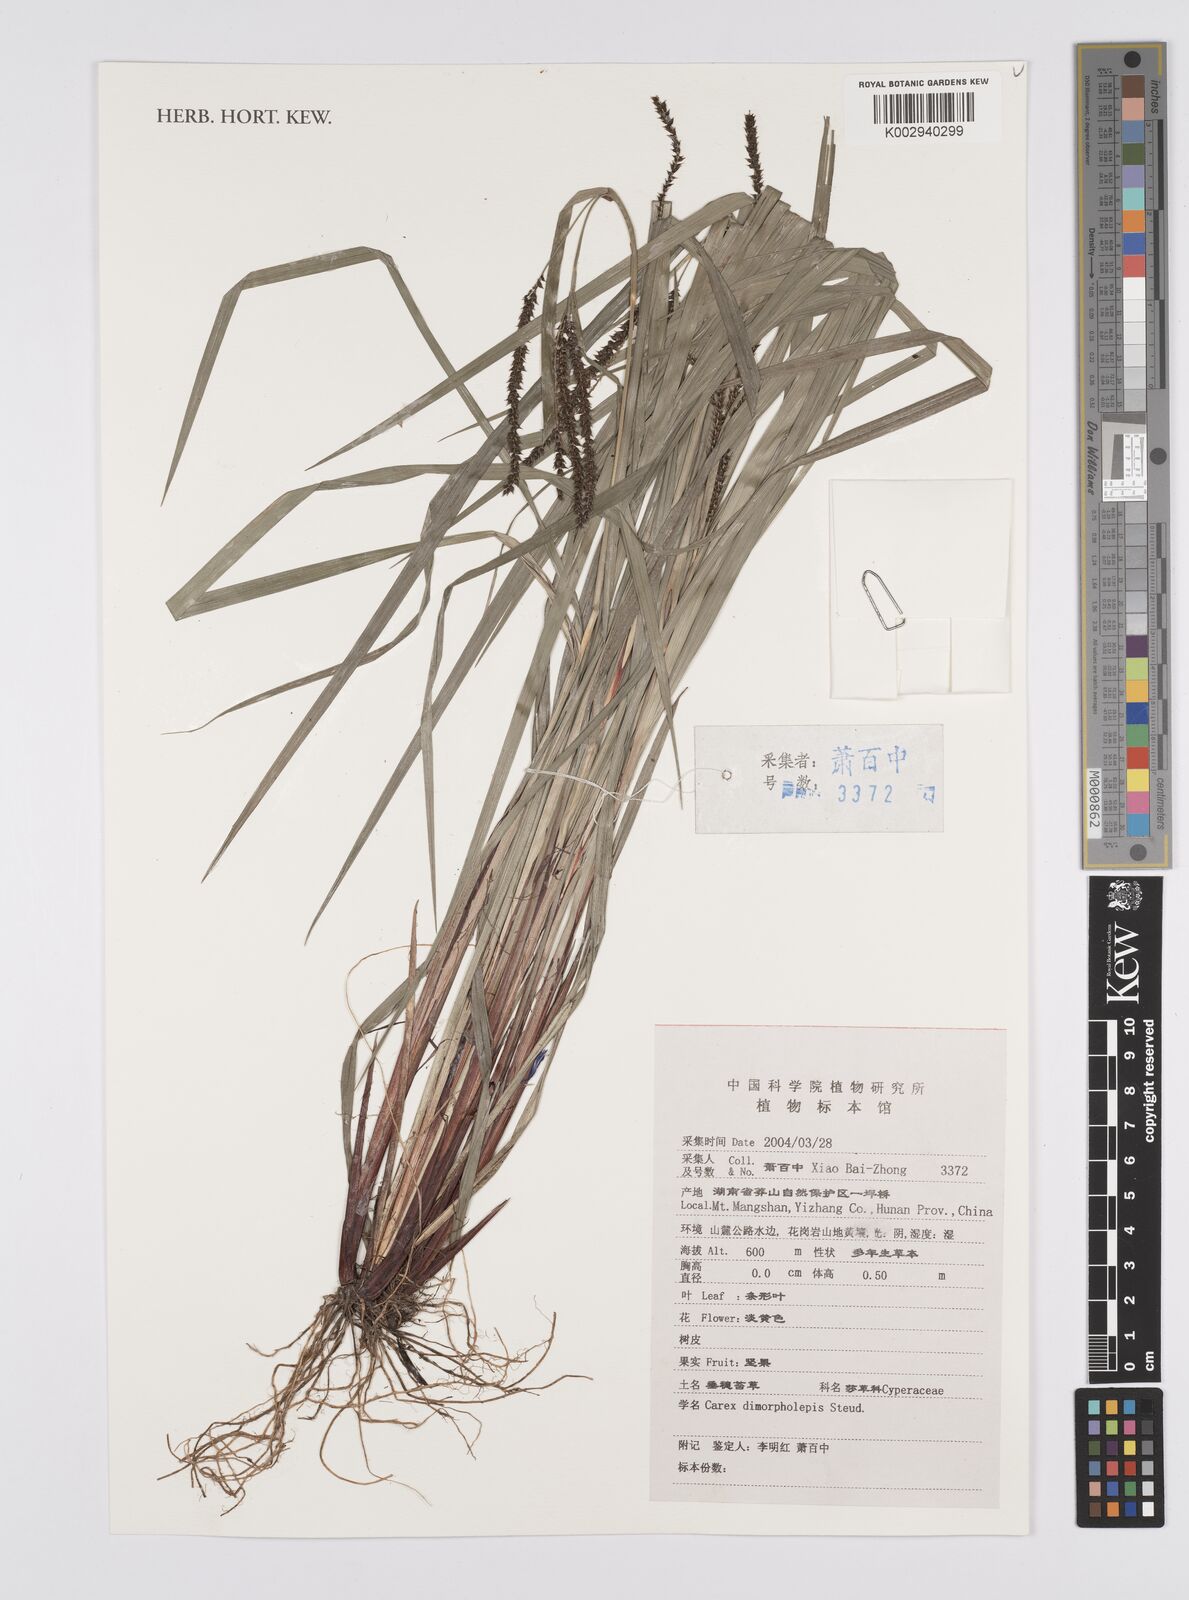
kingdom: Plantae
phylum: Tracheophyta
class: Liliopsida
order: Poales
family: Cyperaceae
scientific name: Cyperaceae
